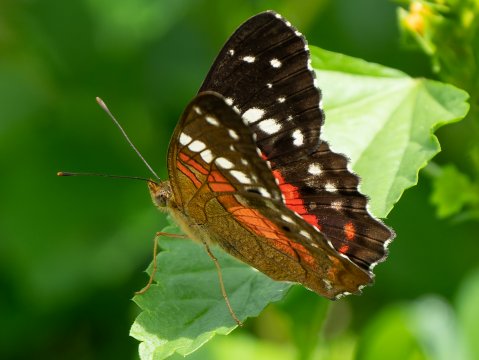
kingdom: Animalia
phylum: Arthropoda
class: Insecta
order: Lepidoptera
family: Nymphalidae
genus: Anartia
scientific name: Anartia amathea
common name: Red Peacock
